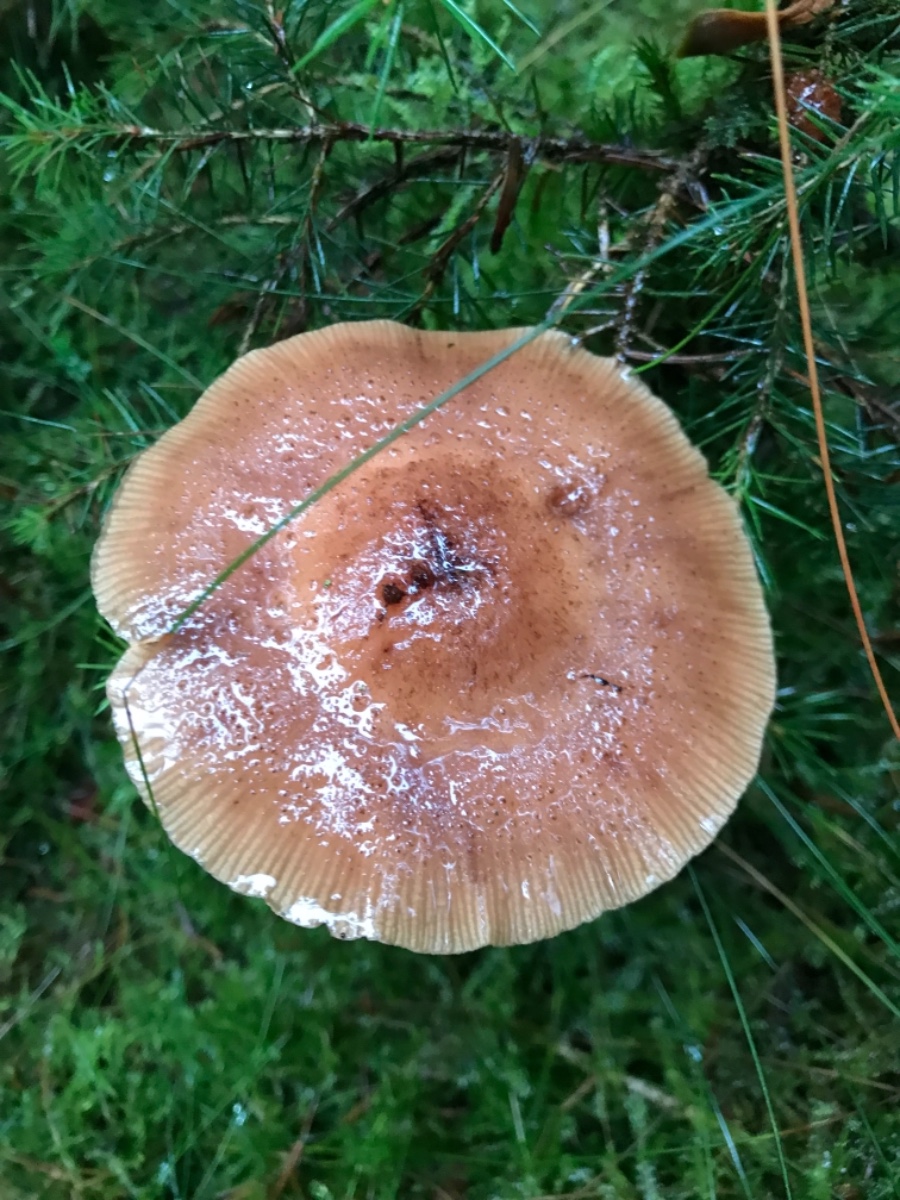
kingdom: Fungi
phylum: Basidiomycota
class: Agaricomycetes
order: Agaricales
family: Physalacriaceae
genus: Armillaria
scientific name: Armillaria
